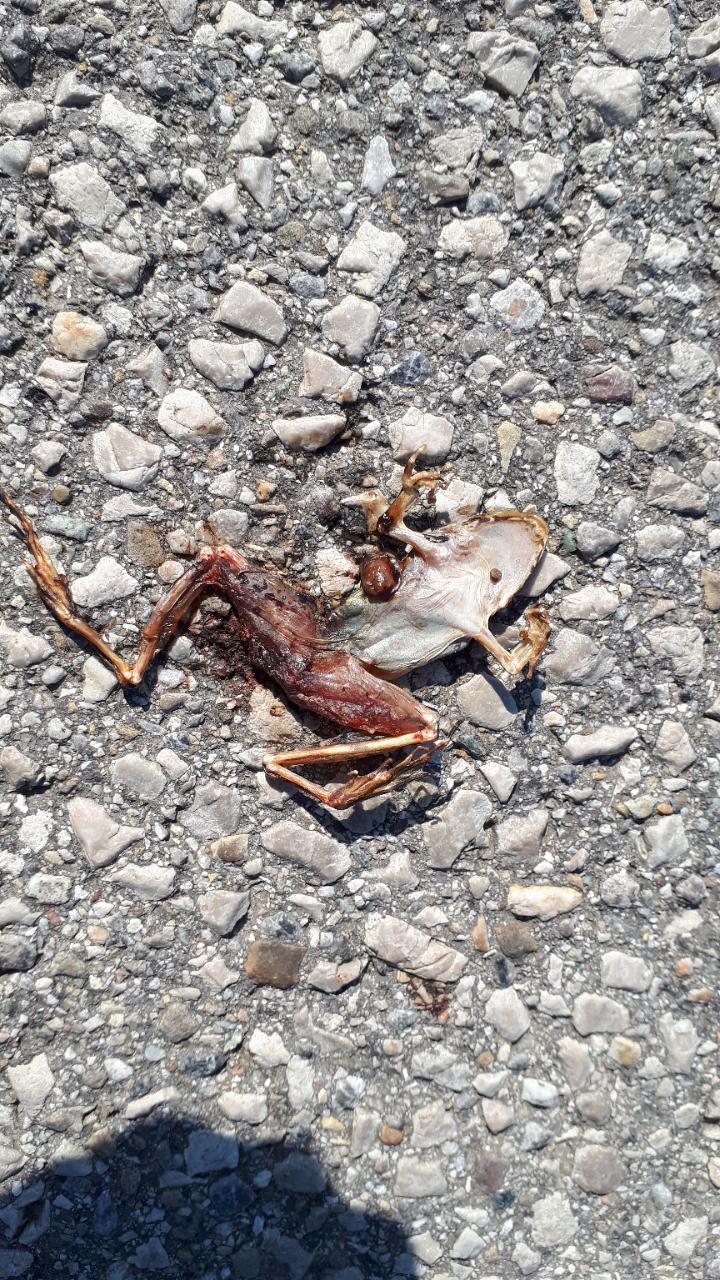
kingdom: Animalia
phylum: Chordata
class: Amphibia
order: Anura
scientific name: Anura
